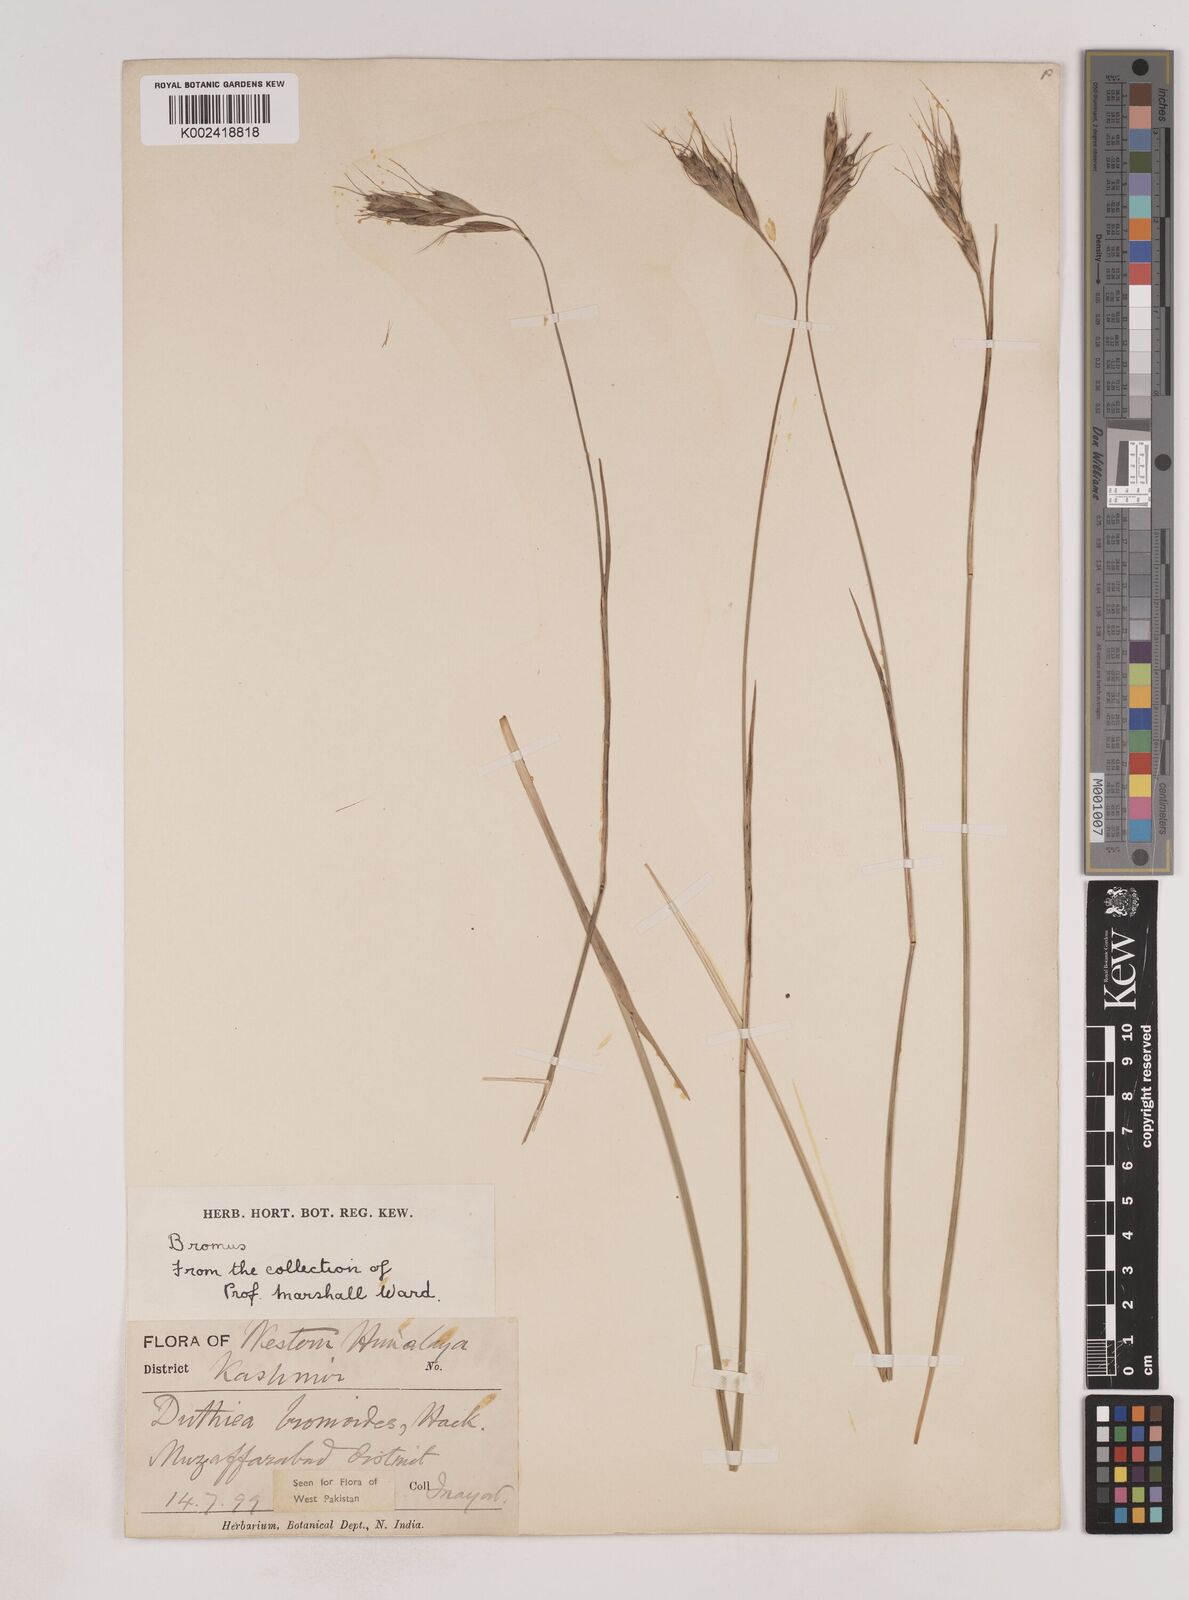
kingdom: Plantae
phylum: Tracheophyta
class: Liliopsida
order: Poales
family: Poaceae
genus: Duthiea
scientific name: Duthiea bromoides
